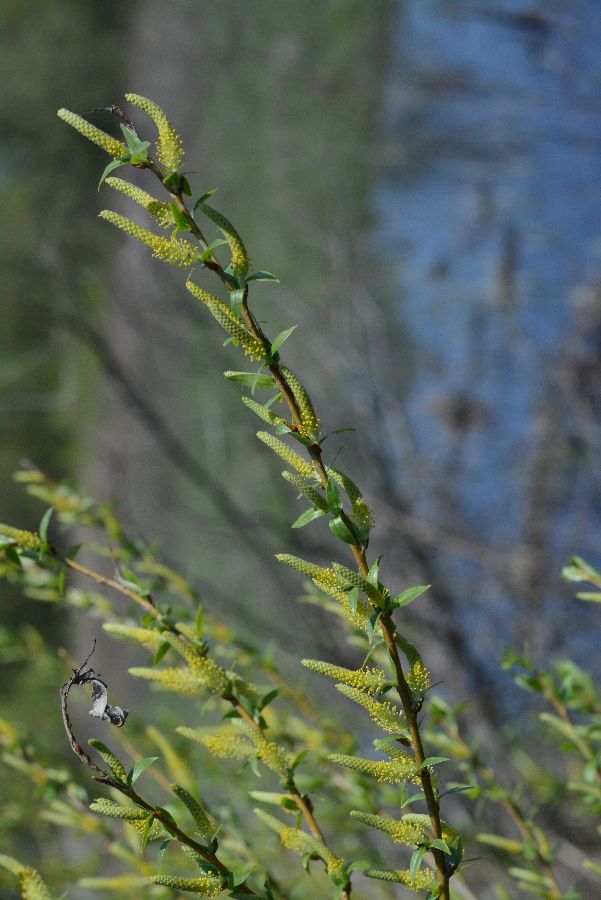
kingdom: Plantae
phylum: Tracheophyta
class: Magnoliopsida
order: Malpighiales
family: Salicaceae
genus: Salix
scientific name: Salix triandra
